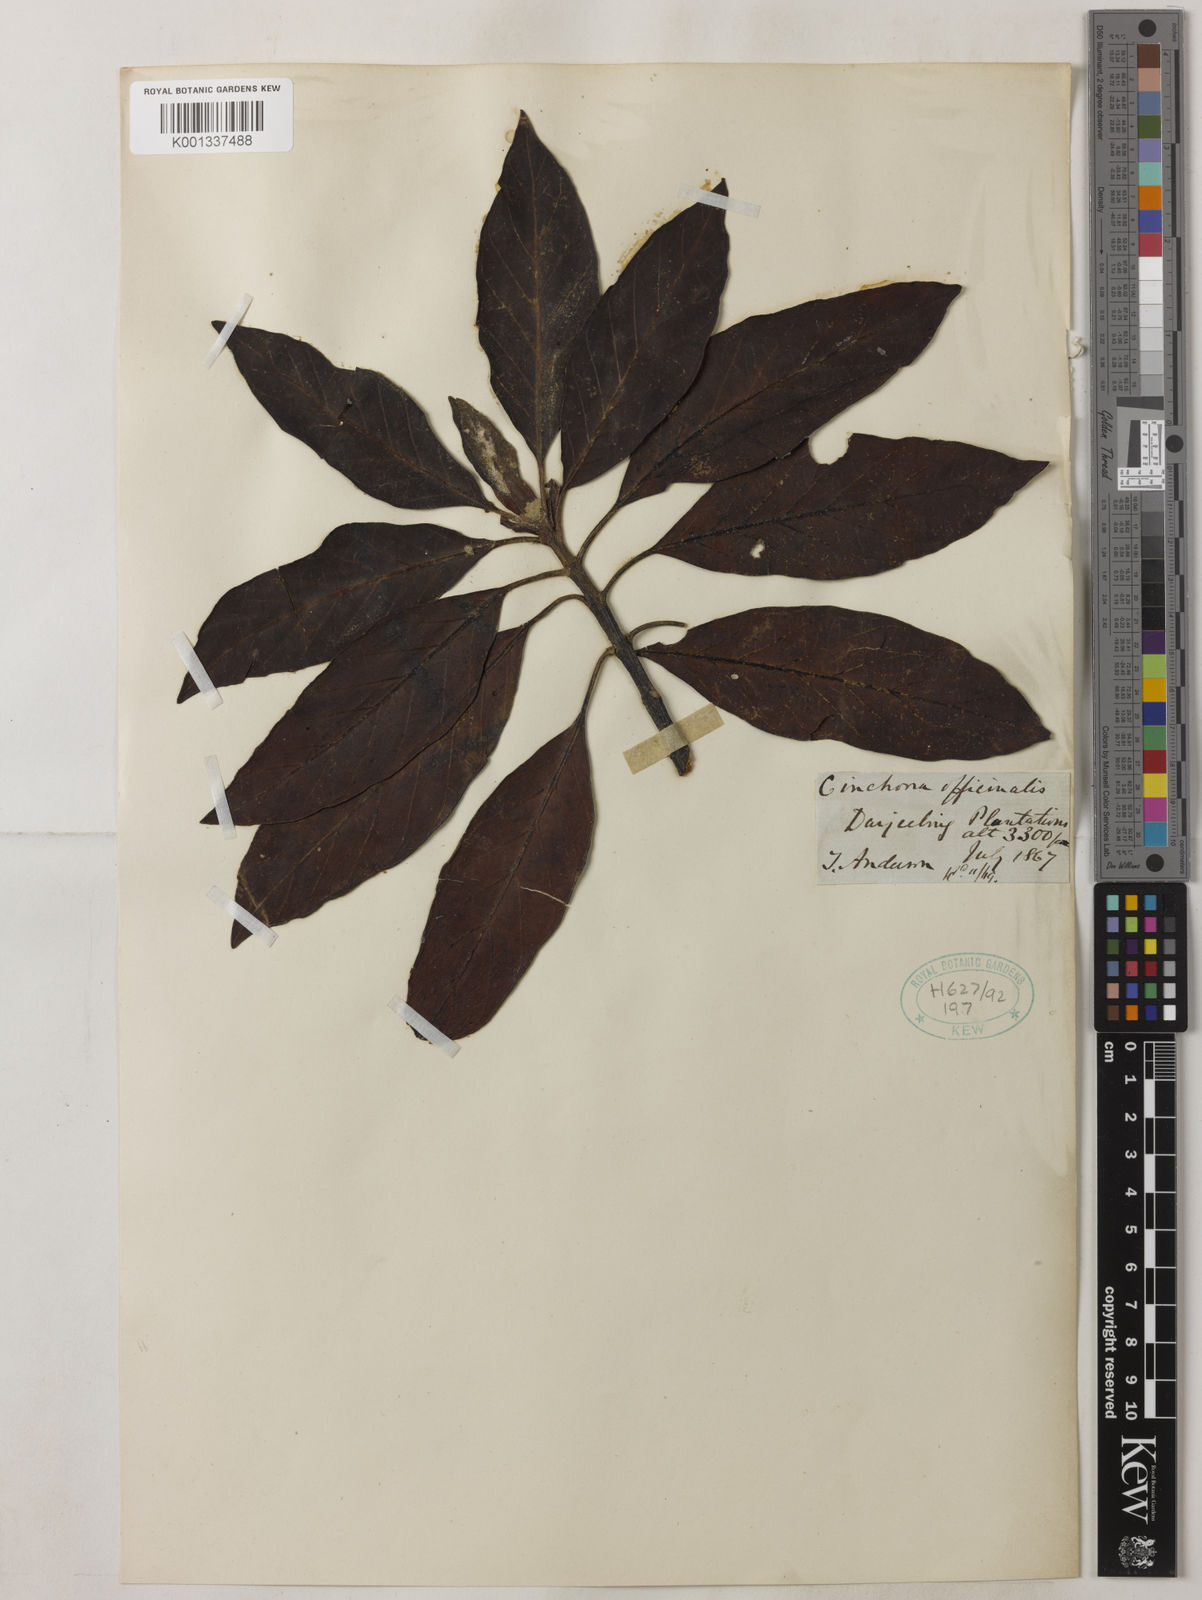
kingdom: Plantae
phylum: Tracheophyta
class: Magnoliopsida
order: Gentianales
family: Rubiaceae
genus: Cinchona
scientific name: Cinchona officinalis
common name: Lojabark
